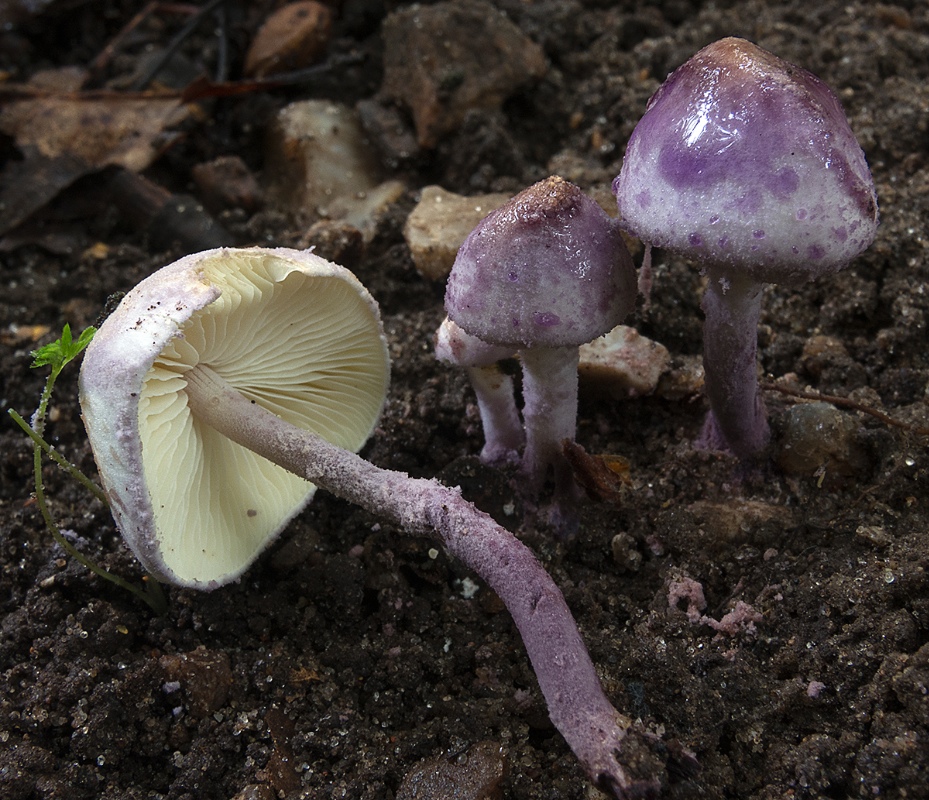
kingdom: Fungi
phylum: Basidiomycota
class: Agaricomycetes
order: Agaricales
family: Agaricaceae
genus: Cystolepiota
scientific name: Cystolepiota bucknallii
